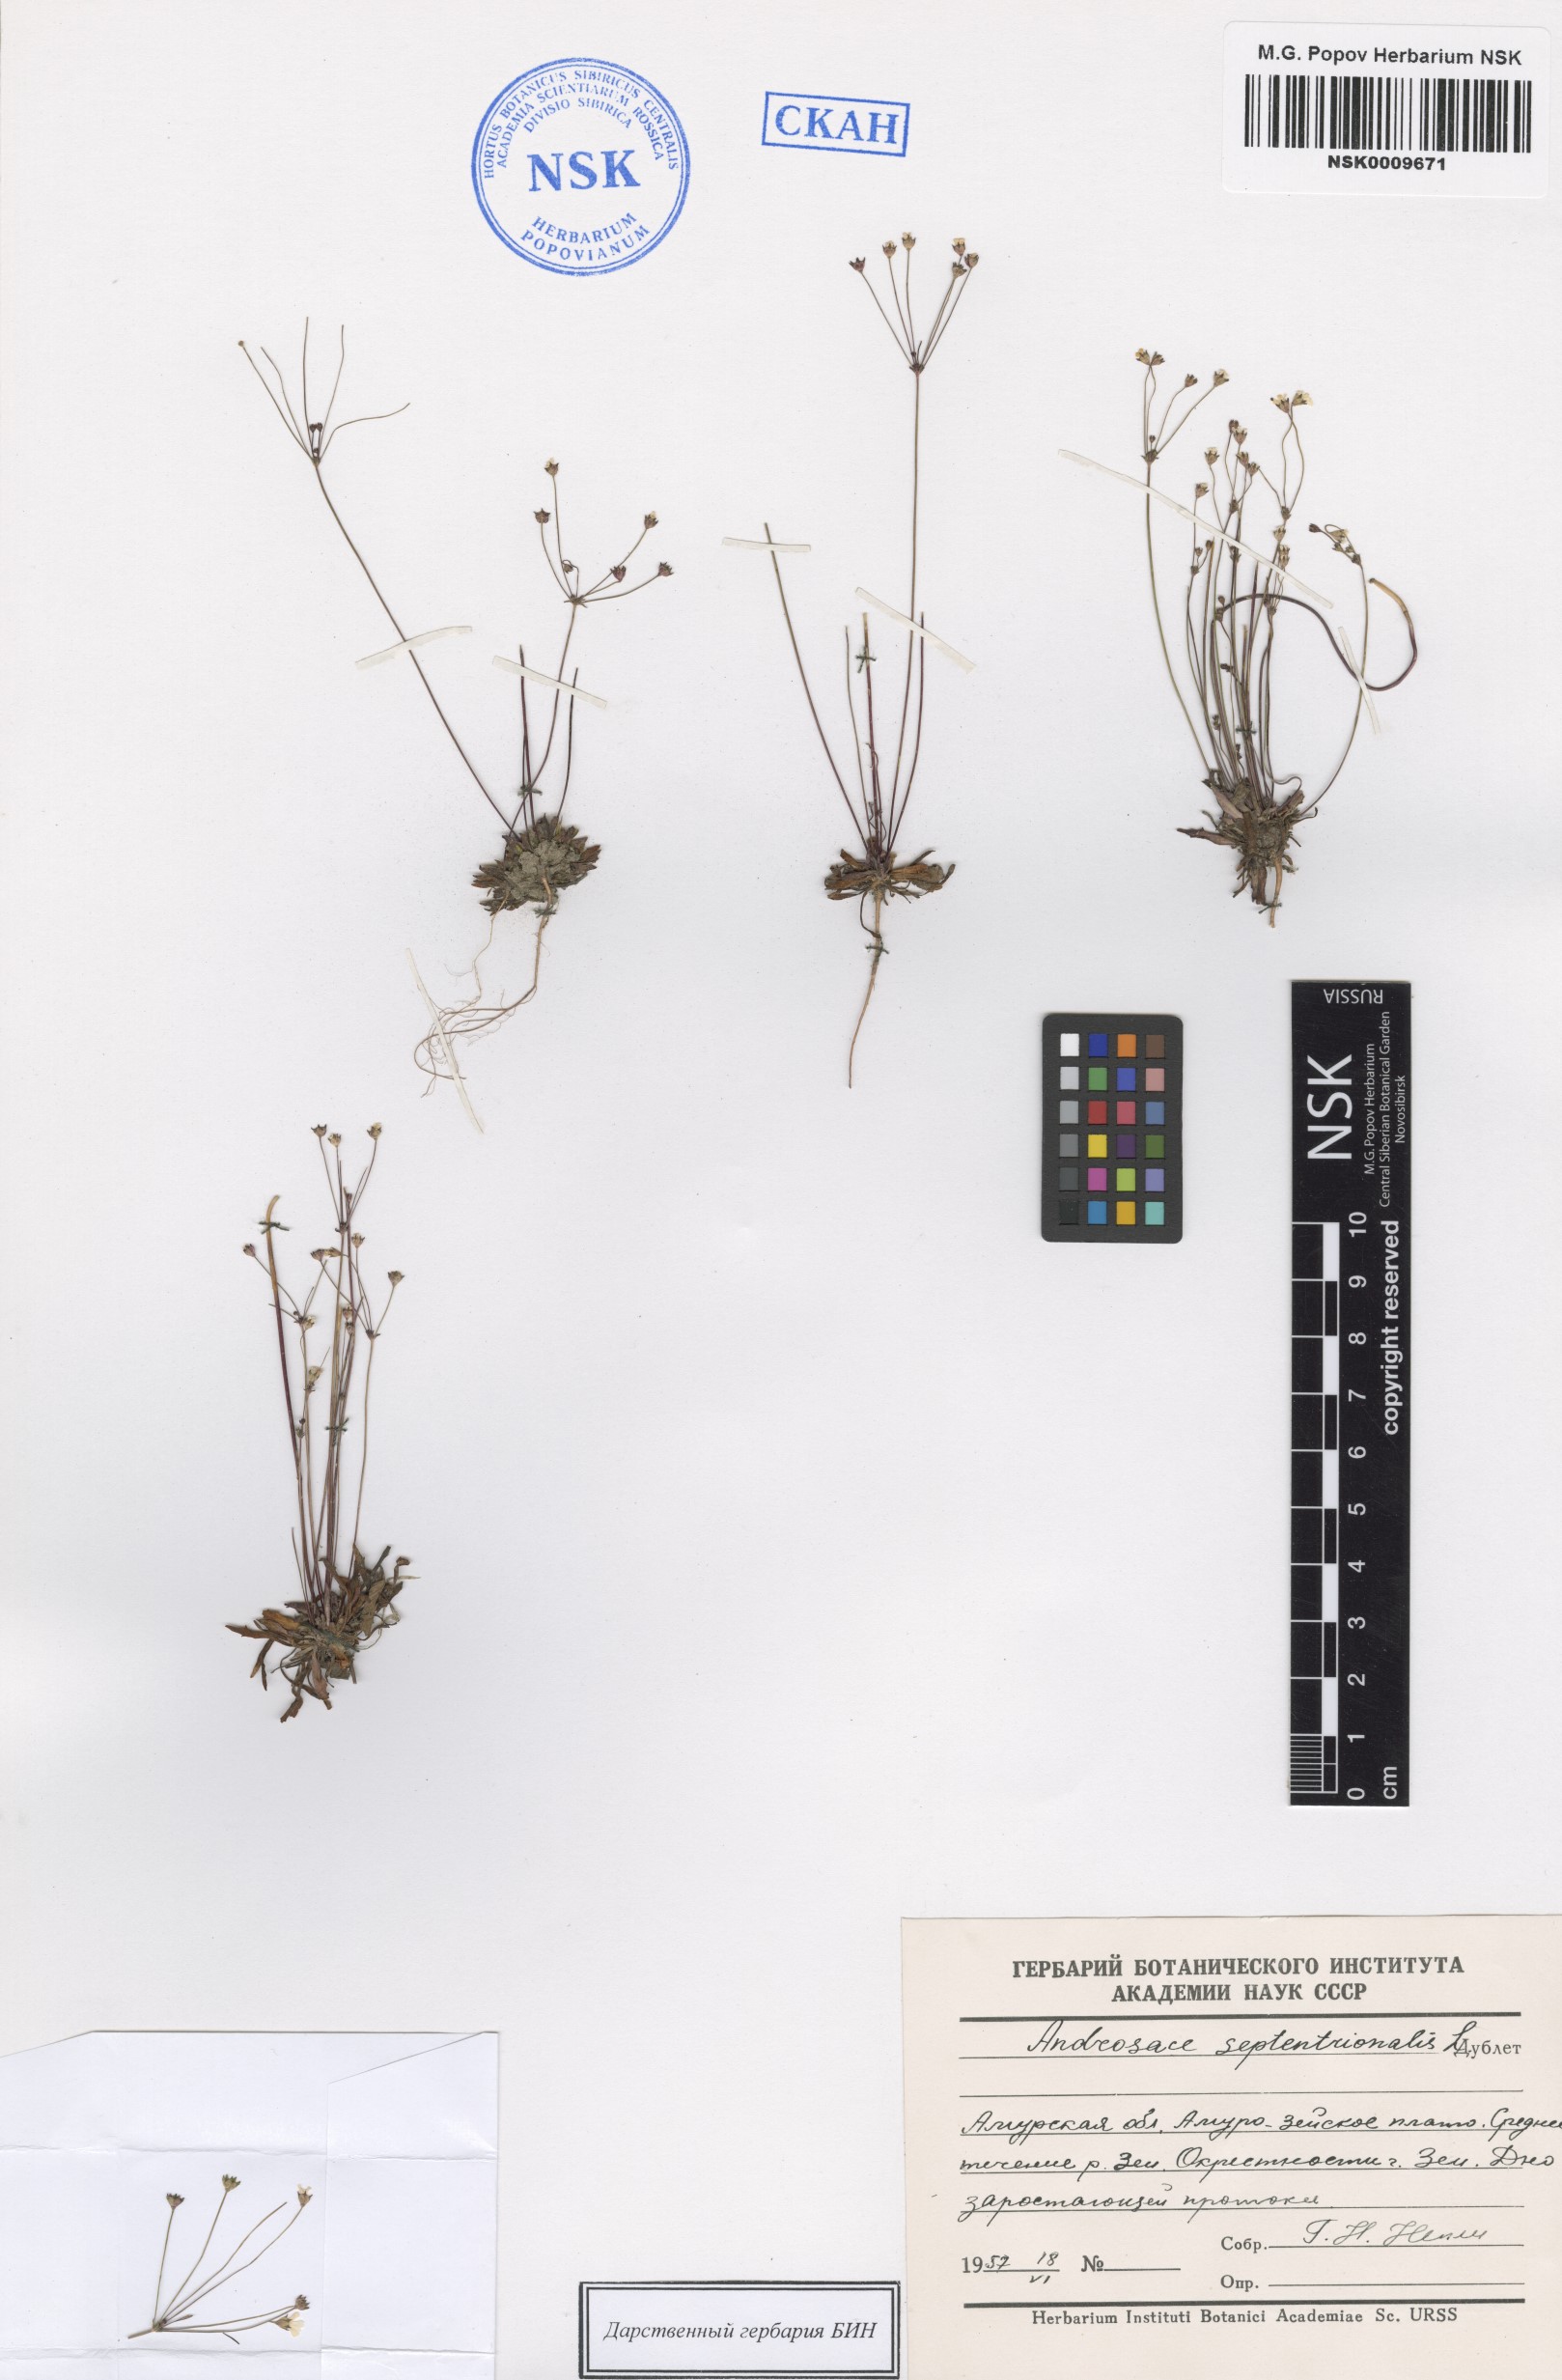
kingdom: Plantae
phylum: Tracheophyta
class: Magnoliopsida
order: Ericales
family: Primulaceae
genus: Androsace
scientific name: Androsace septentrionalis
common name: Hairy northern fairy-candelabra
